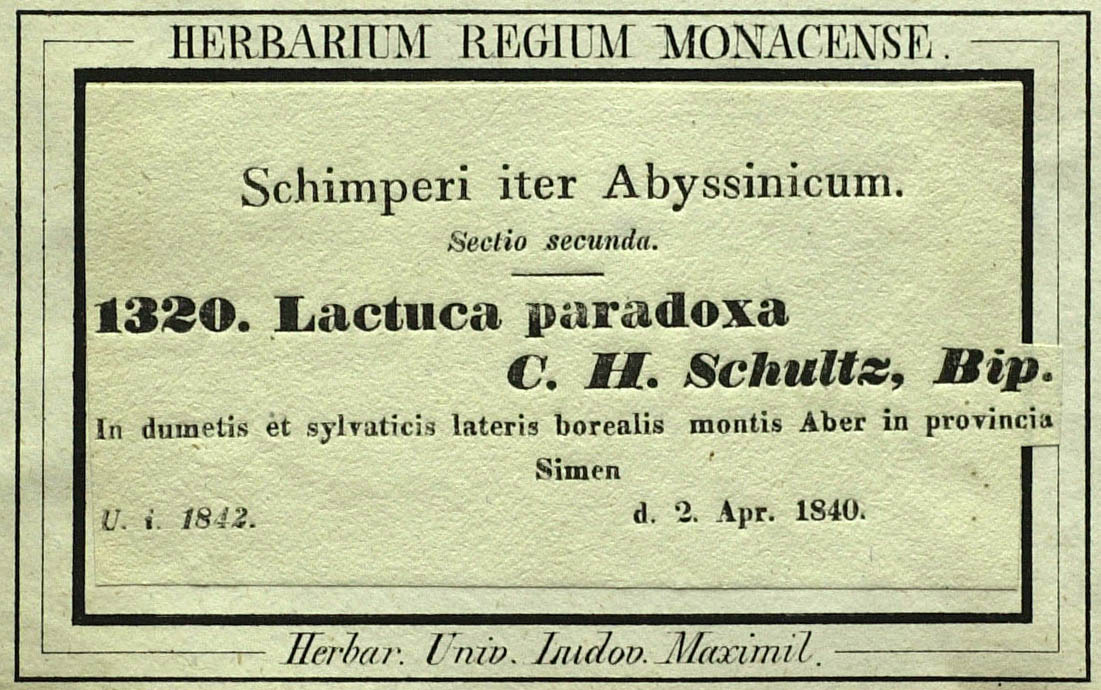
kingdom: Plantae
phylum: Tracheophyta
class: Magnoliopsida
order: Asterales
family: Asteraceae
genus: Lactuca
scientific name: Lactuca paradoxa
